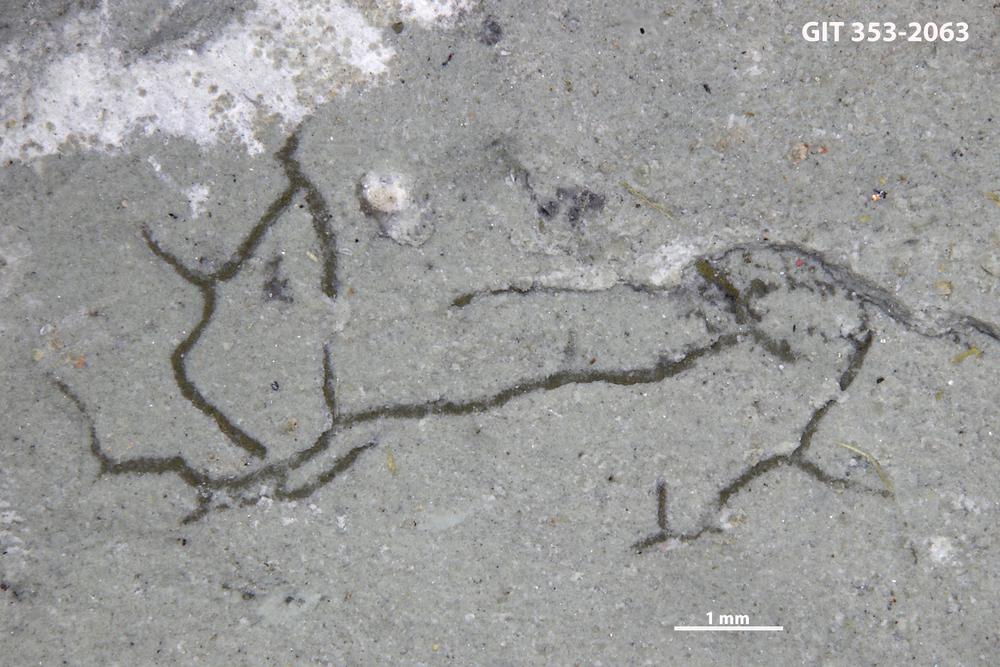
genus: Trichichnus
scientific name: Trichichnus
